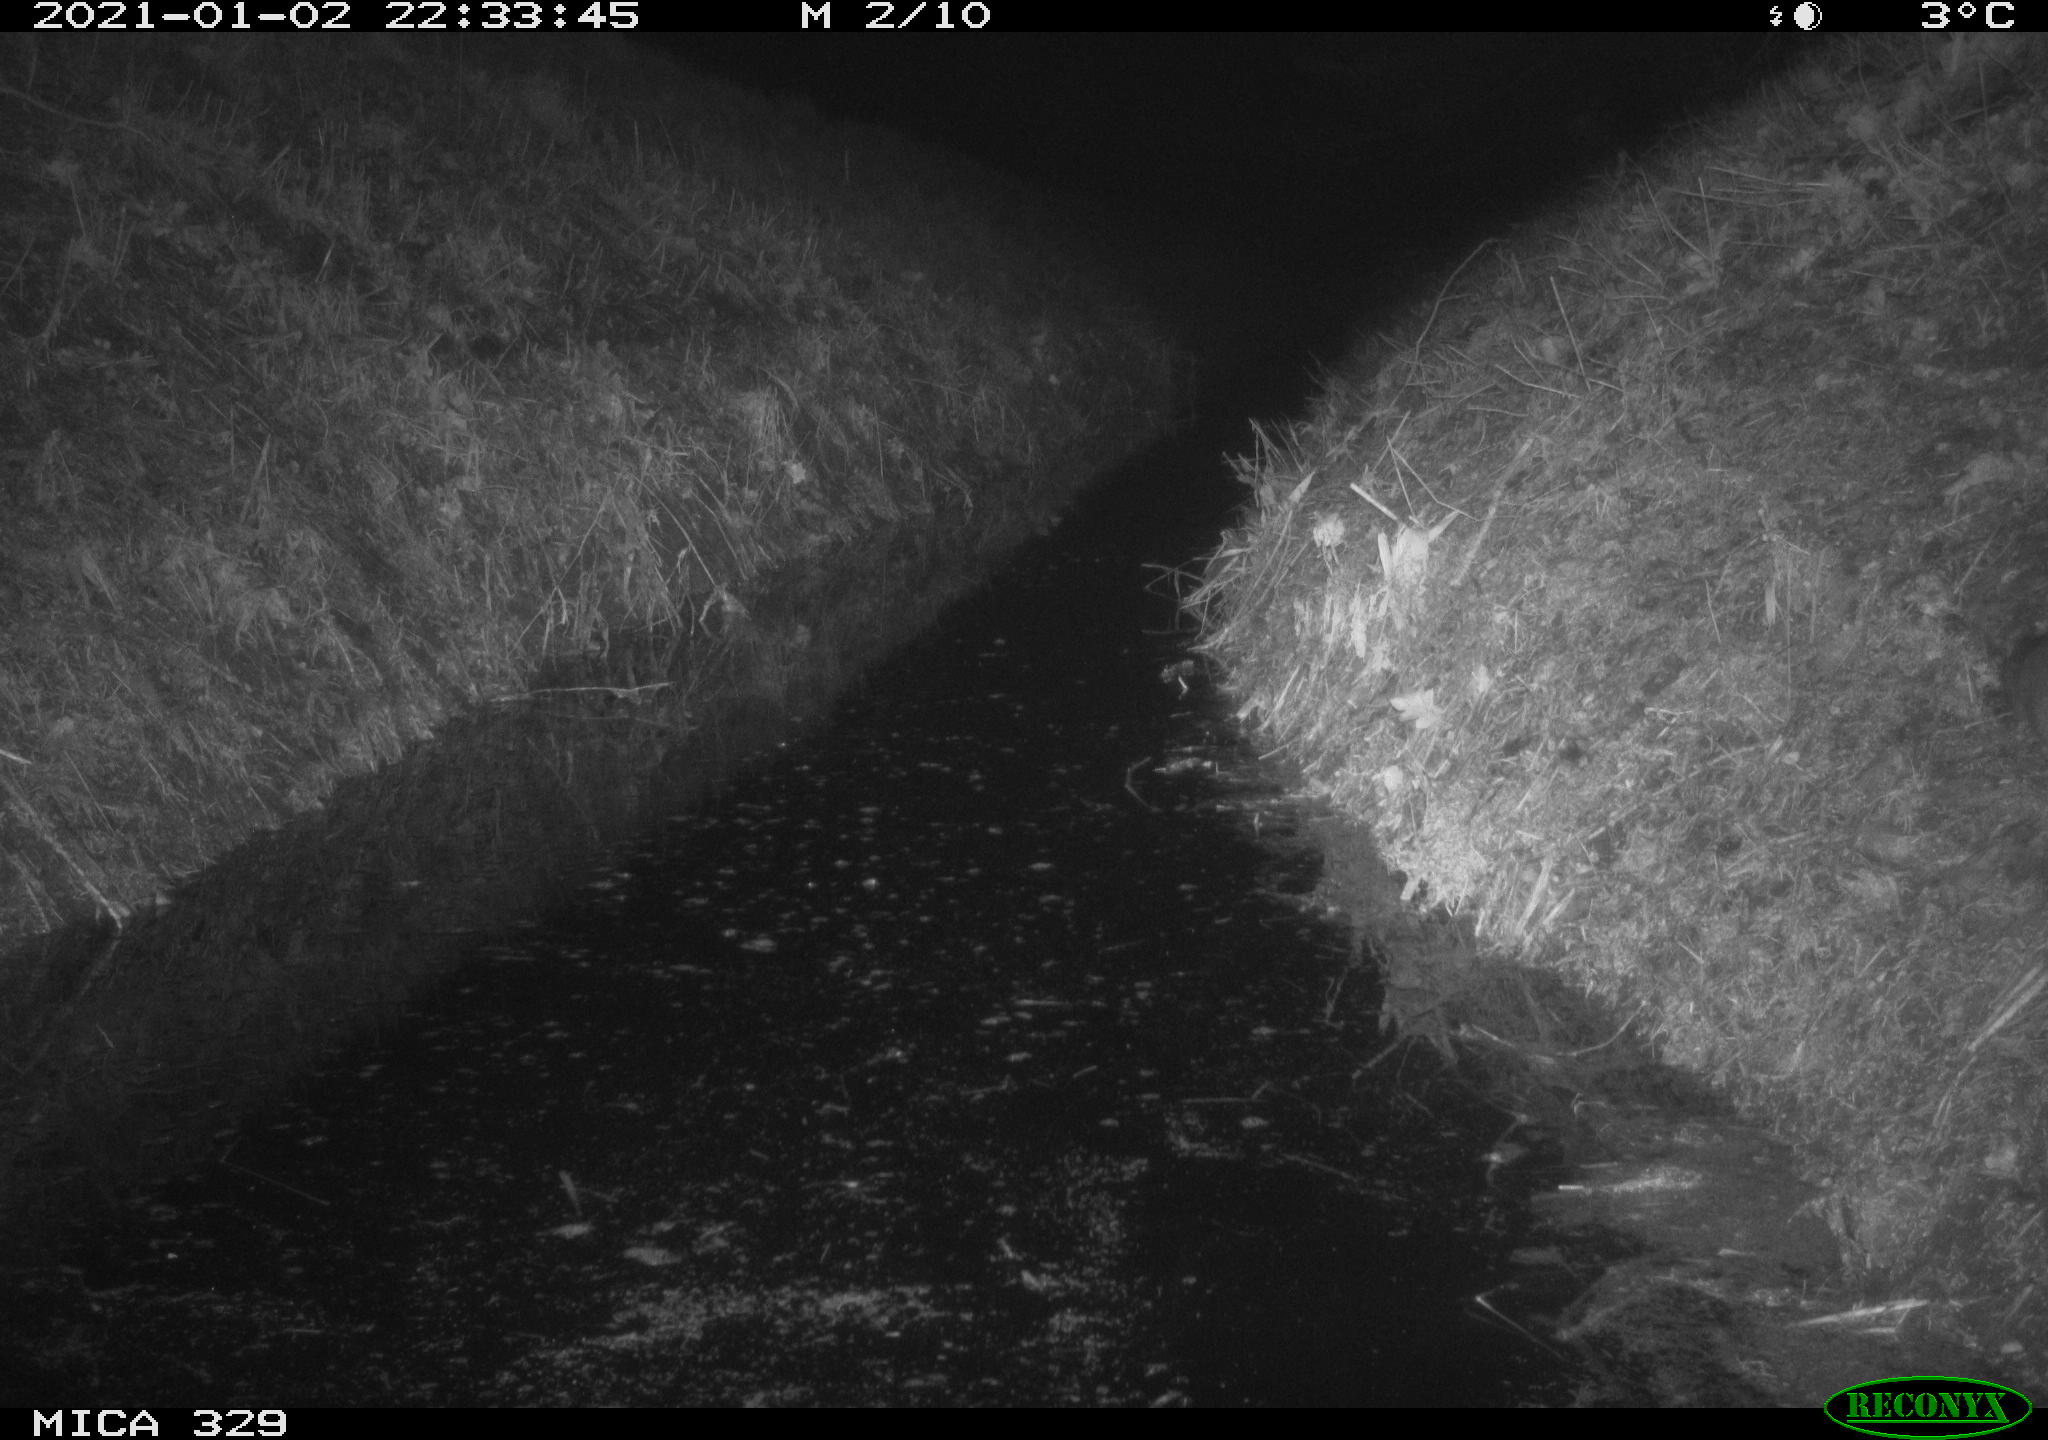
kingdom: Animalia
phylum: Chordata
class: Mammalia
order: Rodentia
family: Muridae
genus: Rattus
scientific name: Rattus norvegicus
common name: Brown rat
